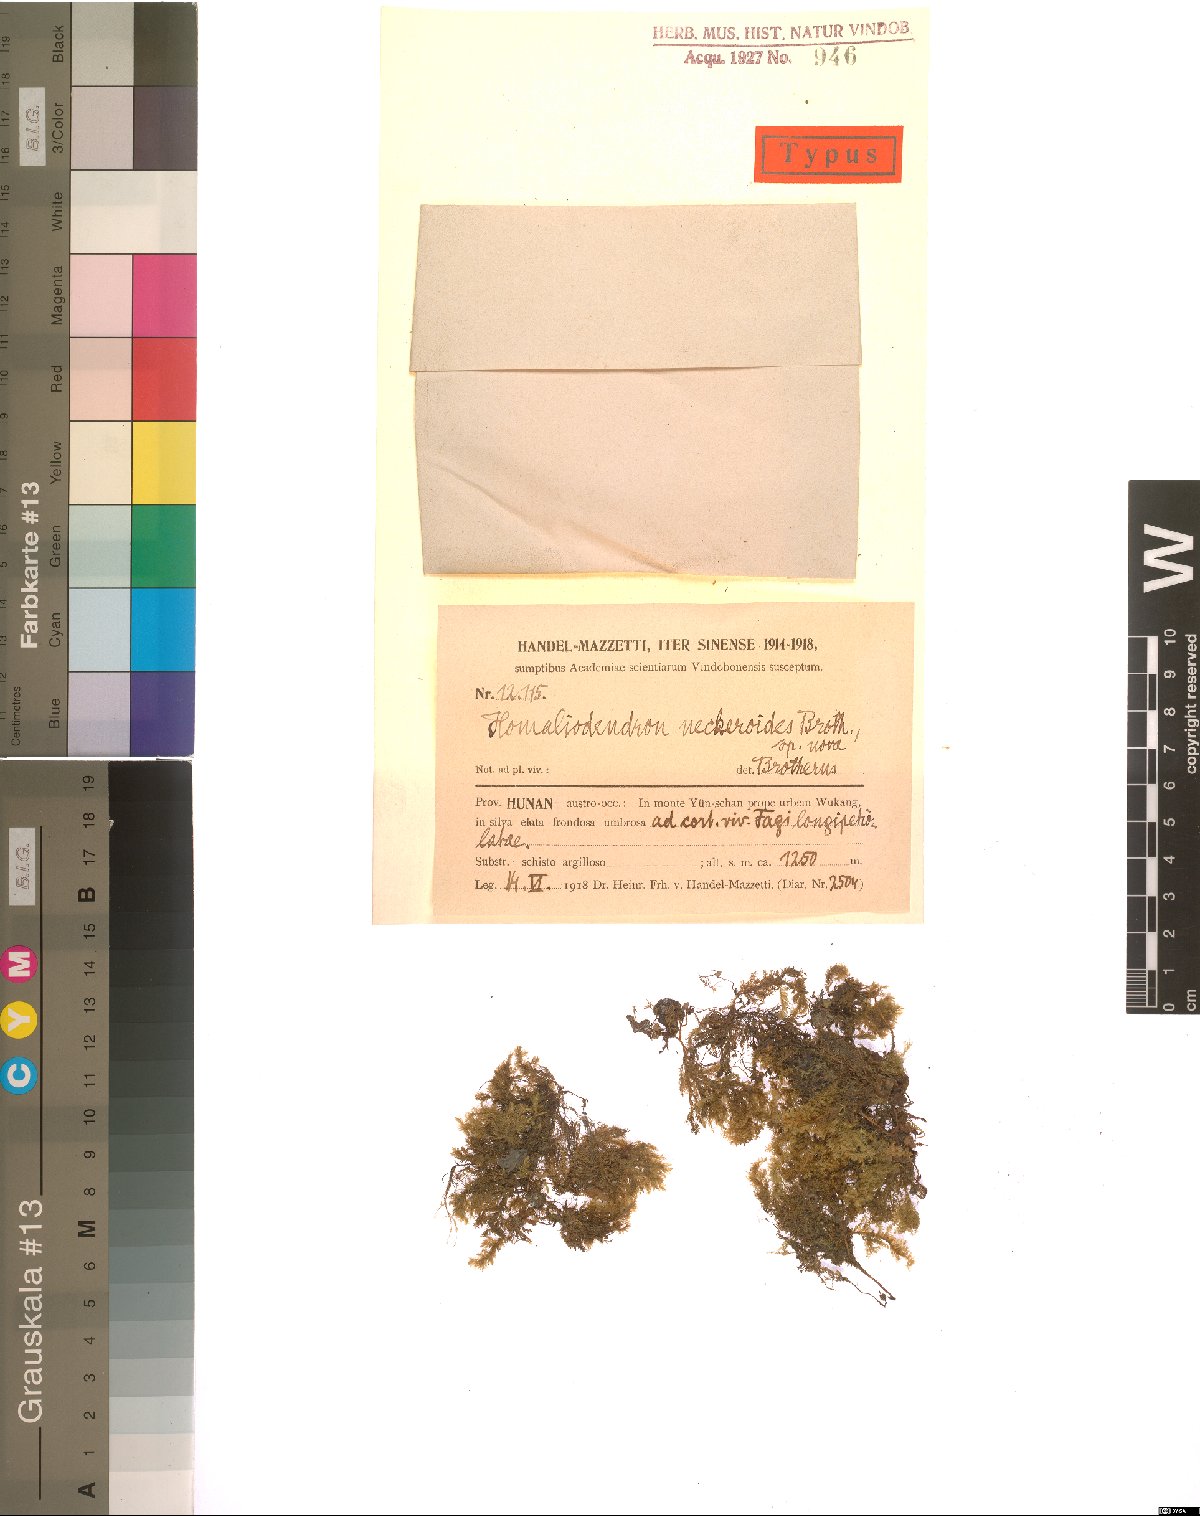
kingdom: Plantae
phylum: Bryophyta
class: Bryopsida
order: Hypnales
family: Neckeraceae
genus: Neckera
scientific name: Neckera neckeroides
